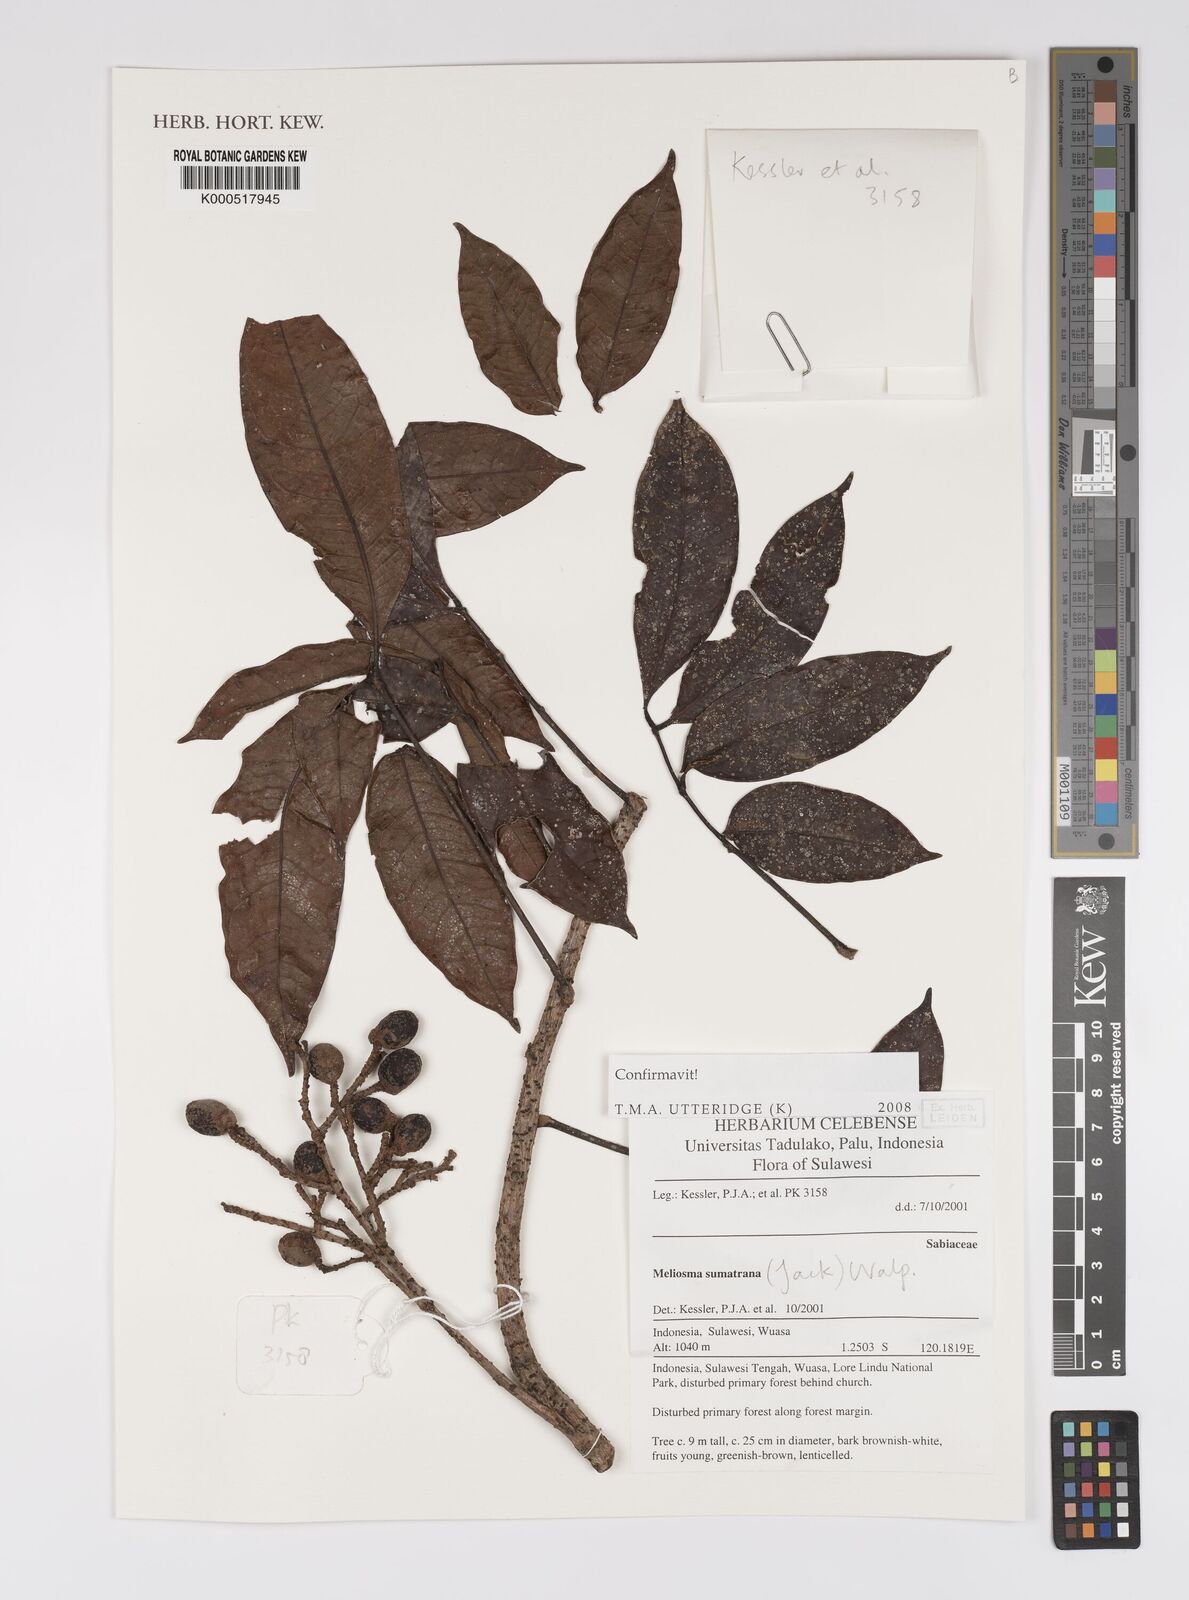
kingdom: Plantae
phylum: Tracheophyta
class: Magnoliopsida
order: Proteales
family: Sabiaceae
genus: Meliosma
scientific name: Meliosma sumatrana
